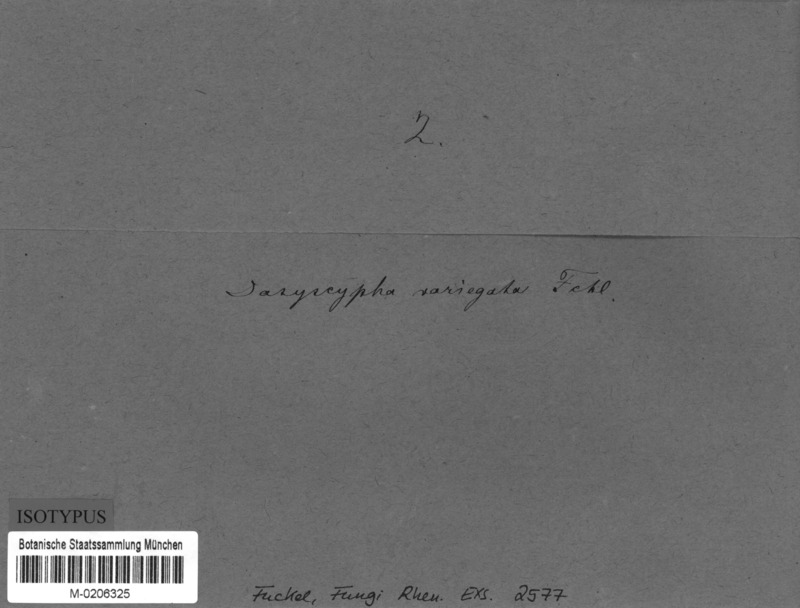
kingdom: Fungi
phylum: Ascomycota
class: Leotiomycetes
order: Helotiales
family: Solenopeziaceae
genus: Lasiobelonium
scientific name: Lasiobelonium variegatum
